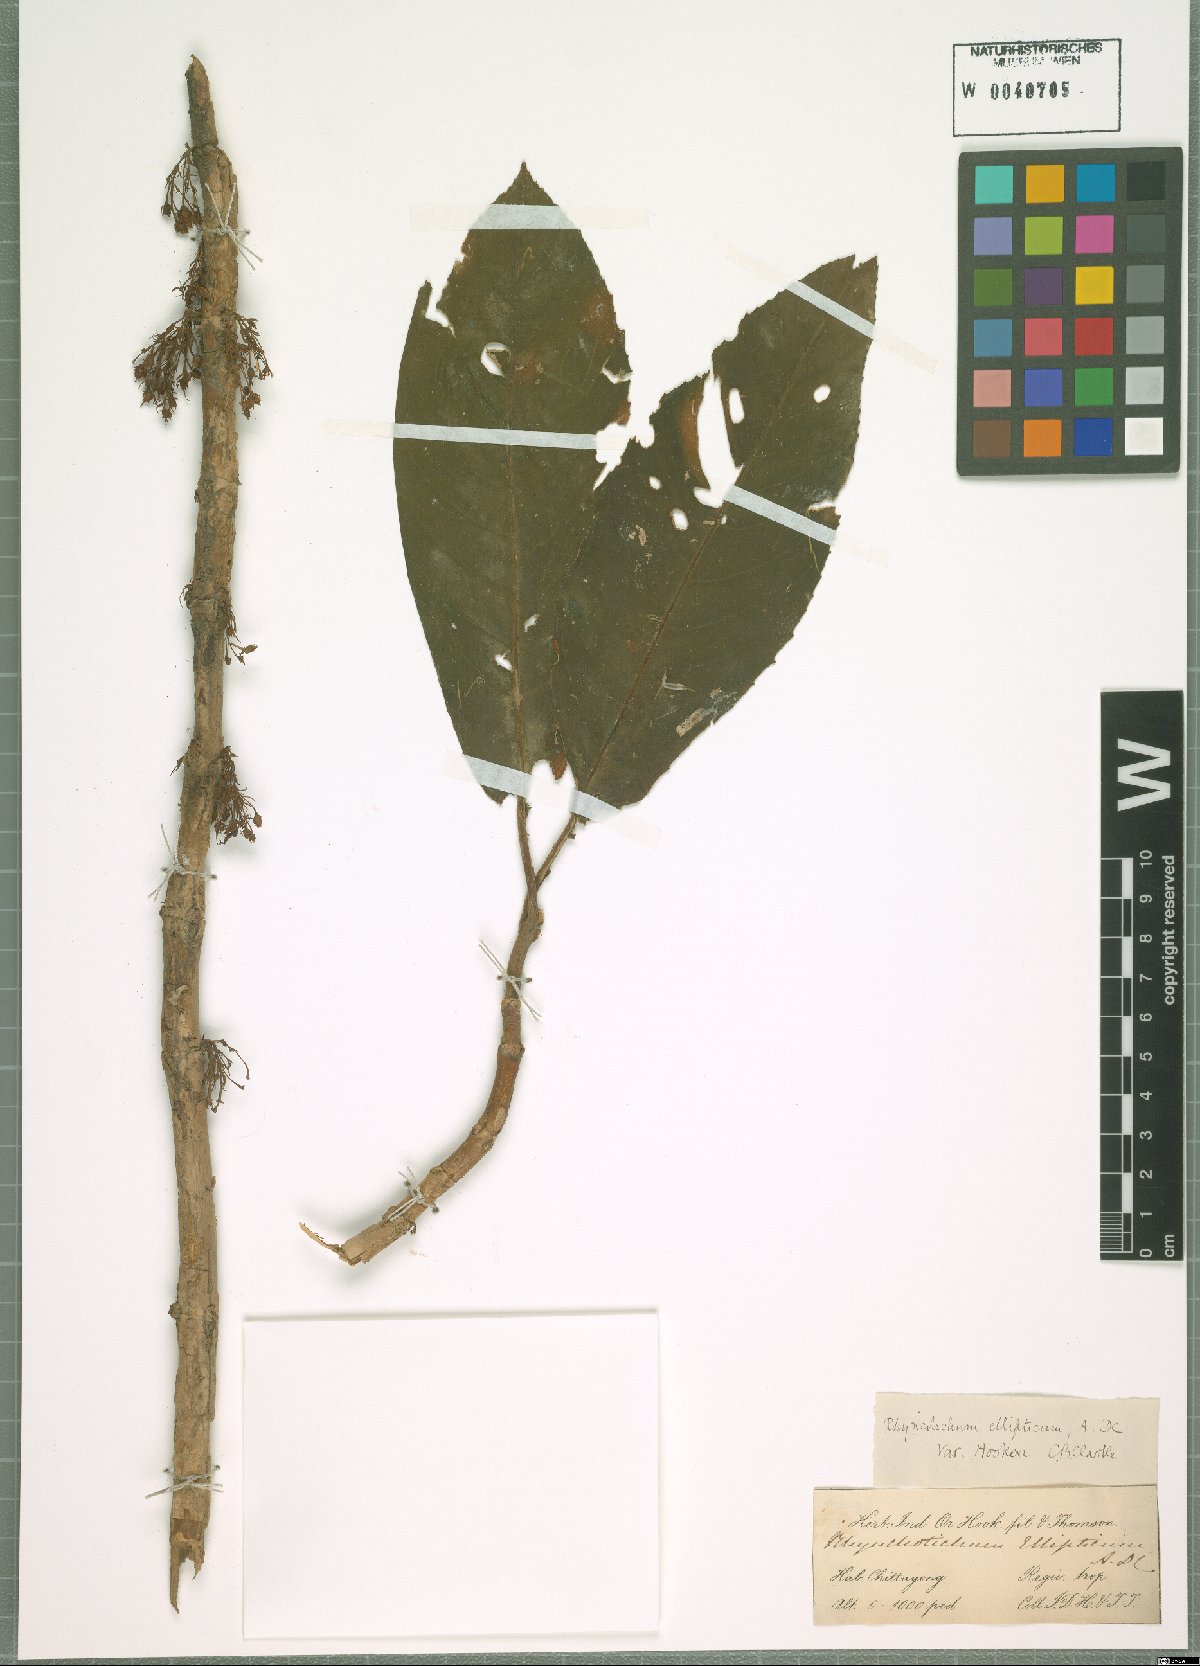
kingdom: Plantae
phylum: Tracheophyta
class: Magnoliopsida
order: Lamiales
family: Gesneriaceae
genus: Rhynchotechum
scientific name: Rhynchotechum
